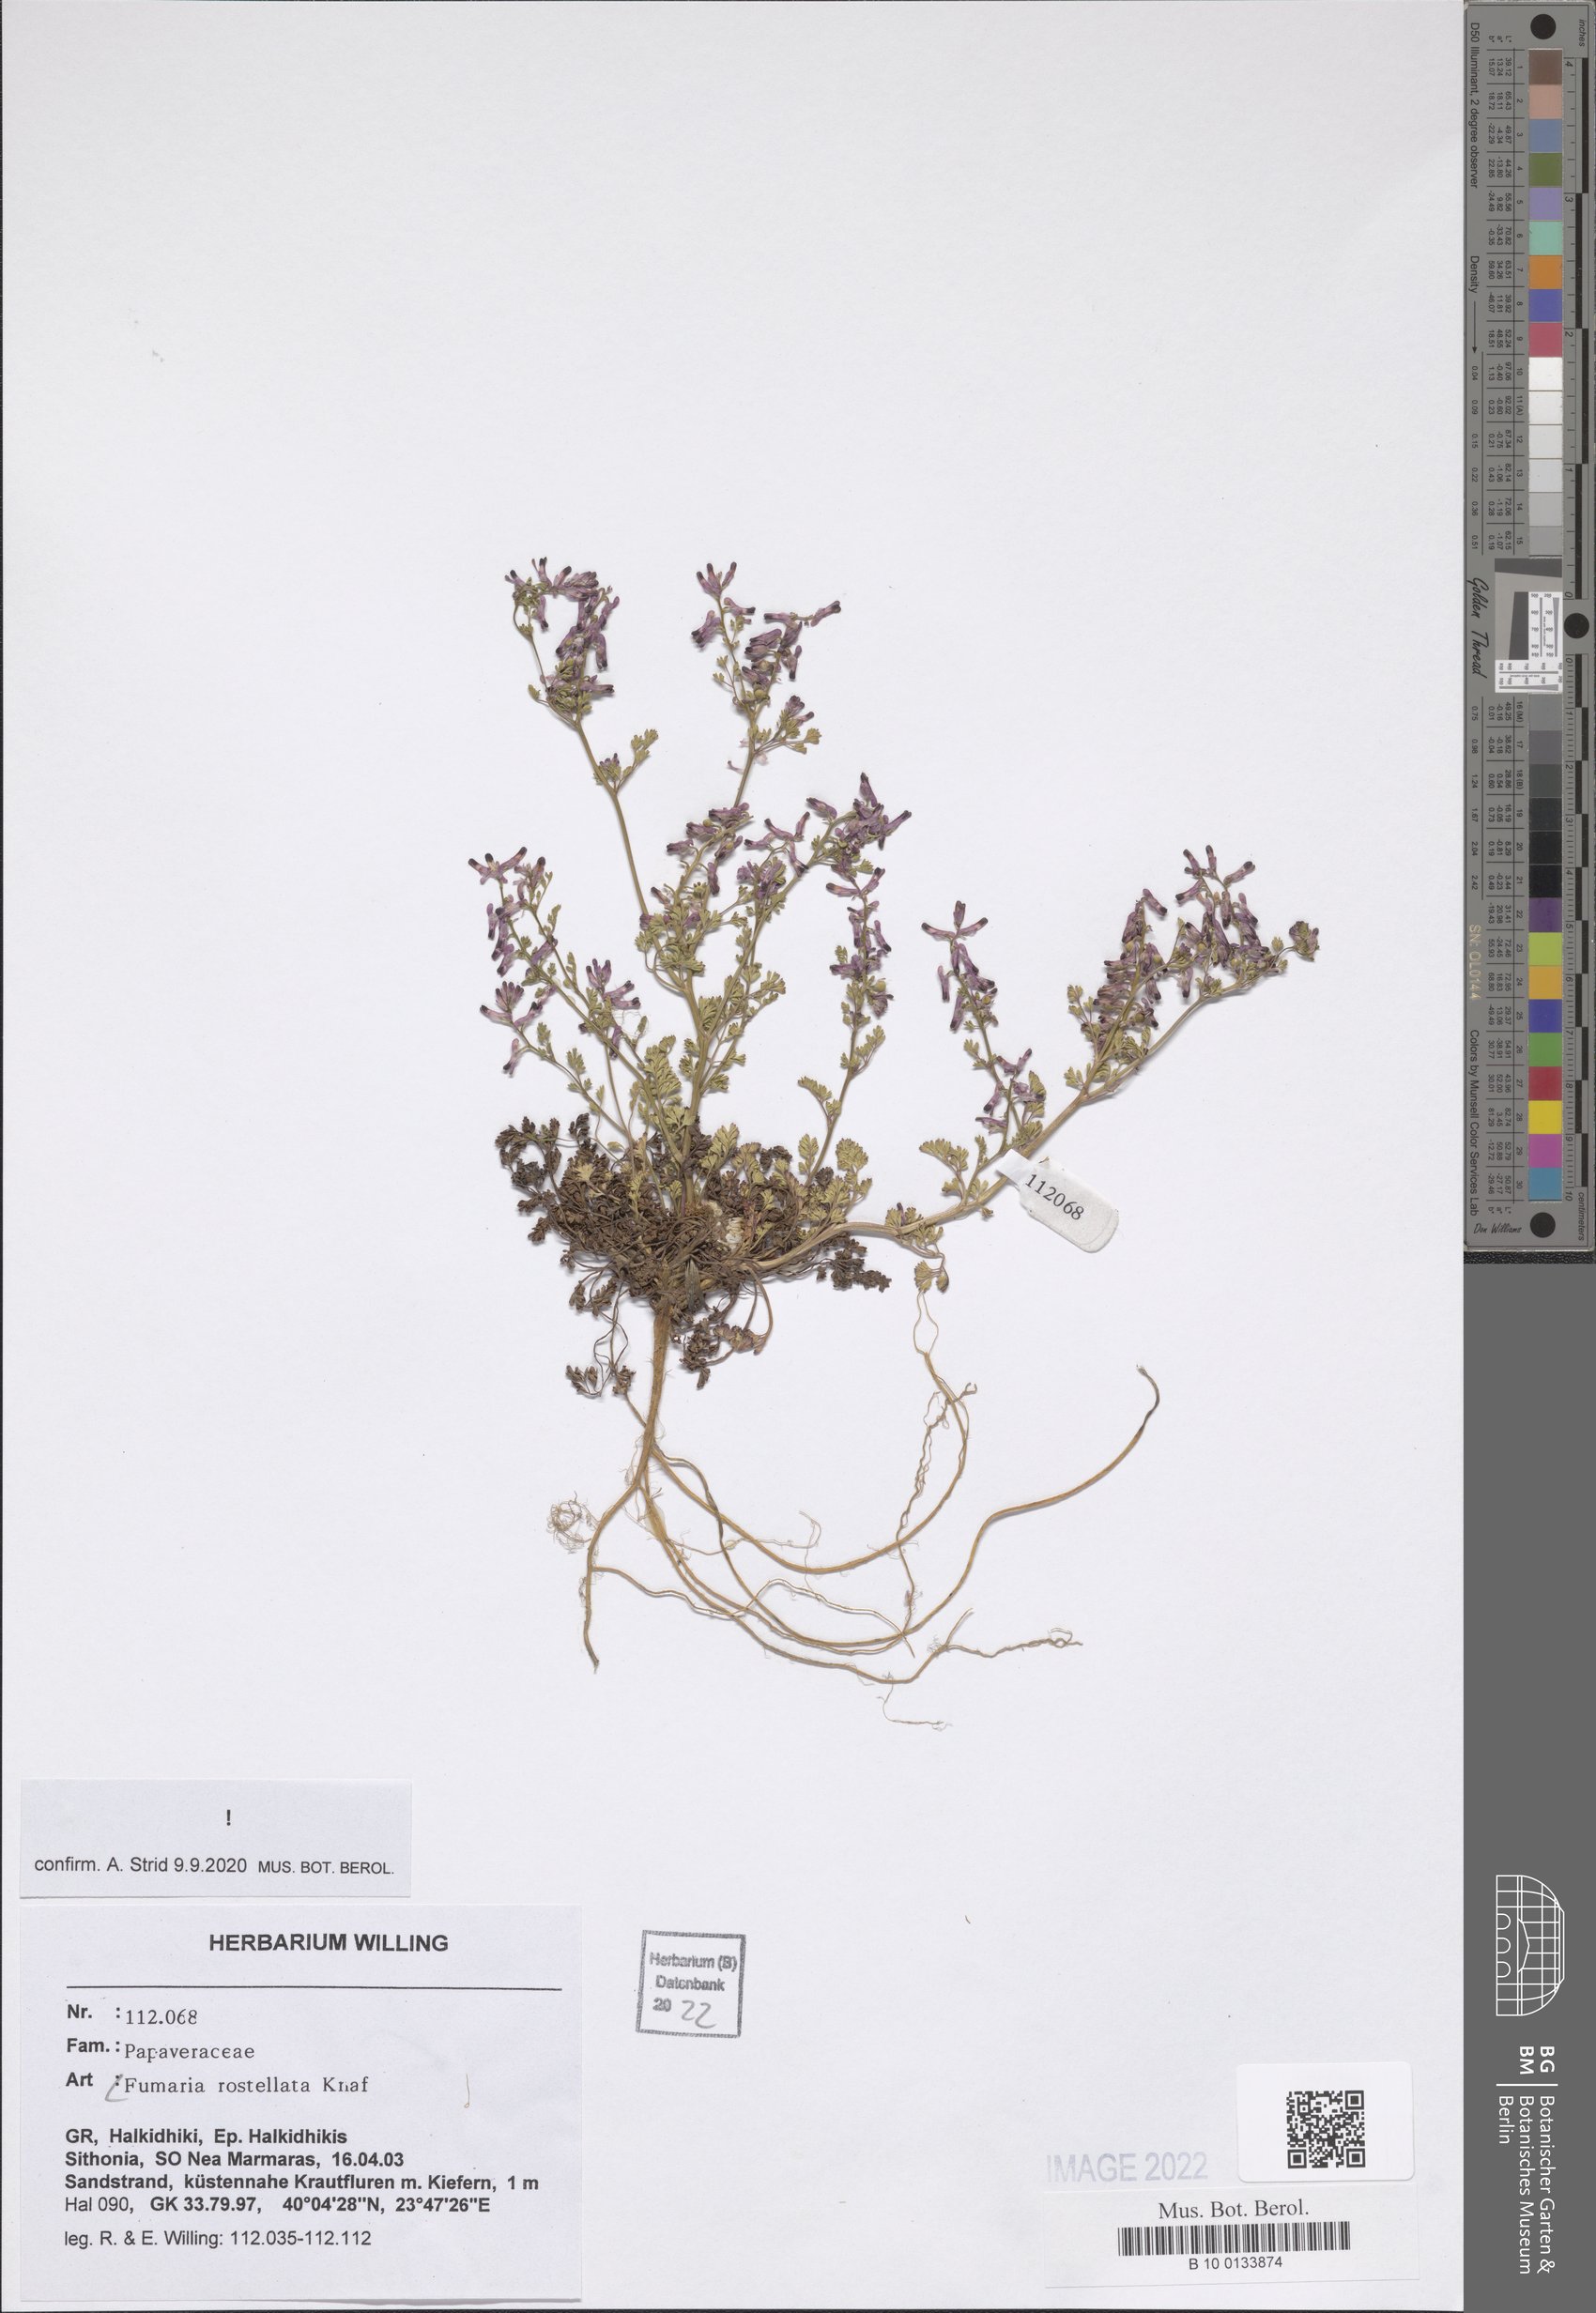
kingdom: Plantae
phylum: Tracheophyta
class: Magnoliopsida
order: Ranunculales
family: Papaveraceae
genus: Fumaria
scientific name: Fumaria rostellata
